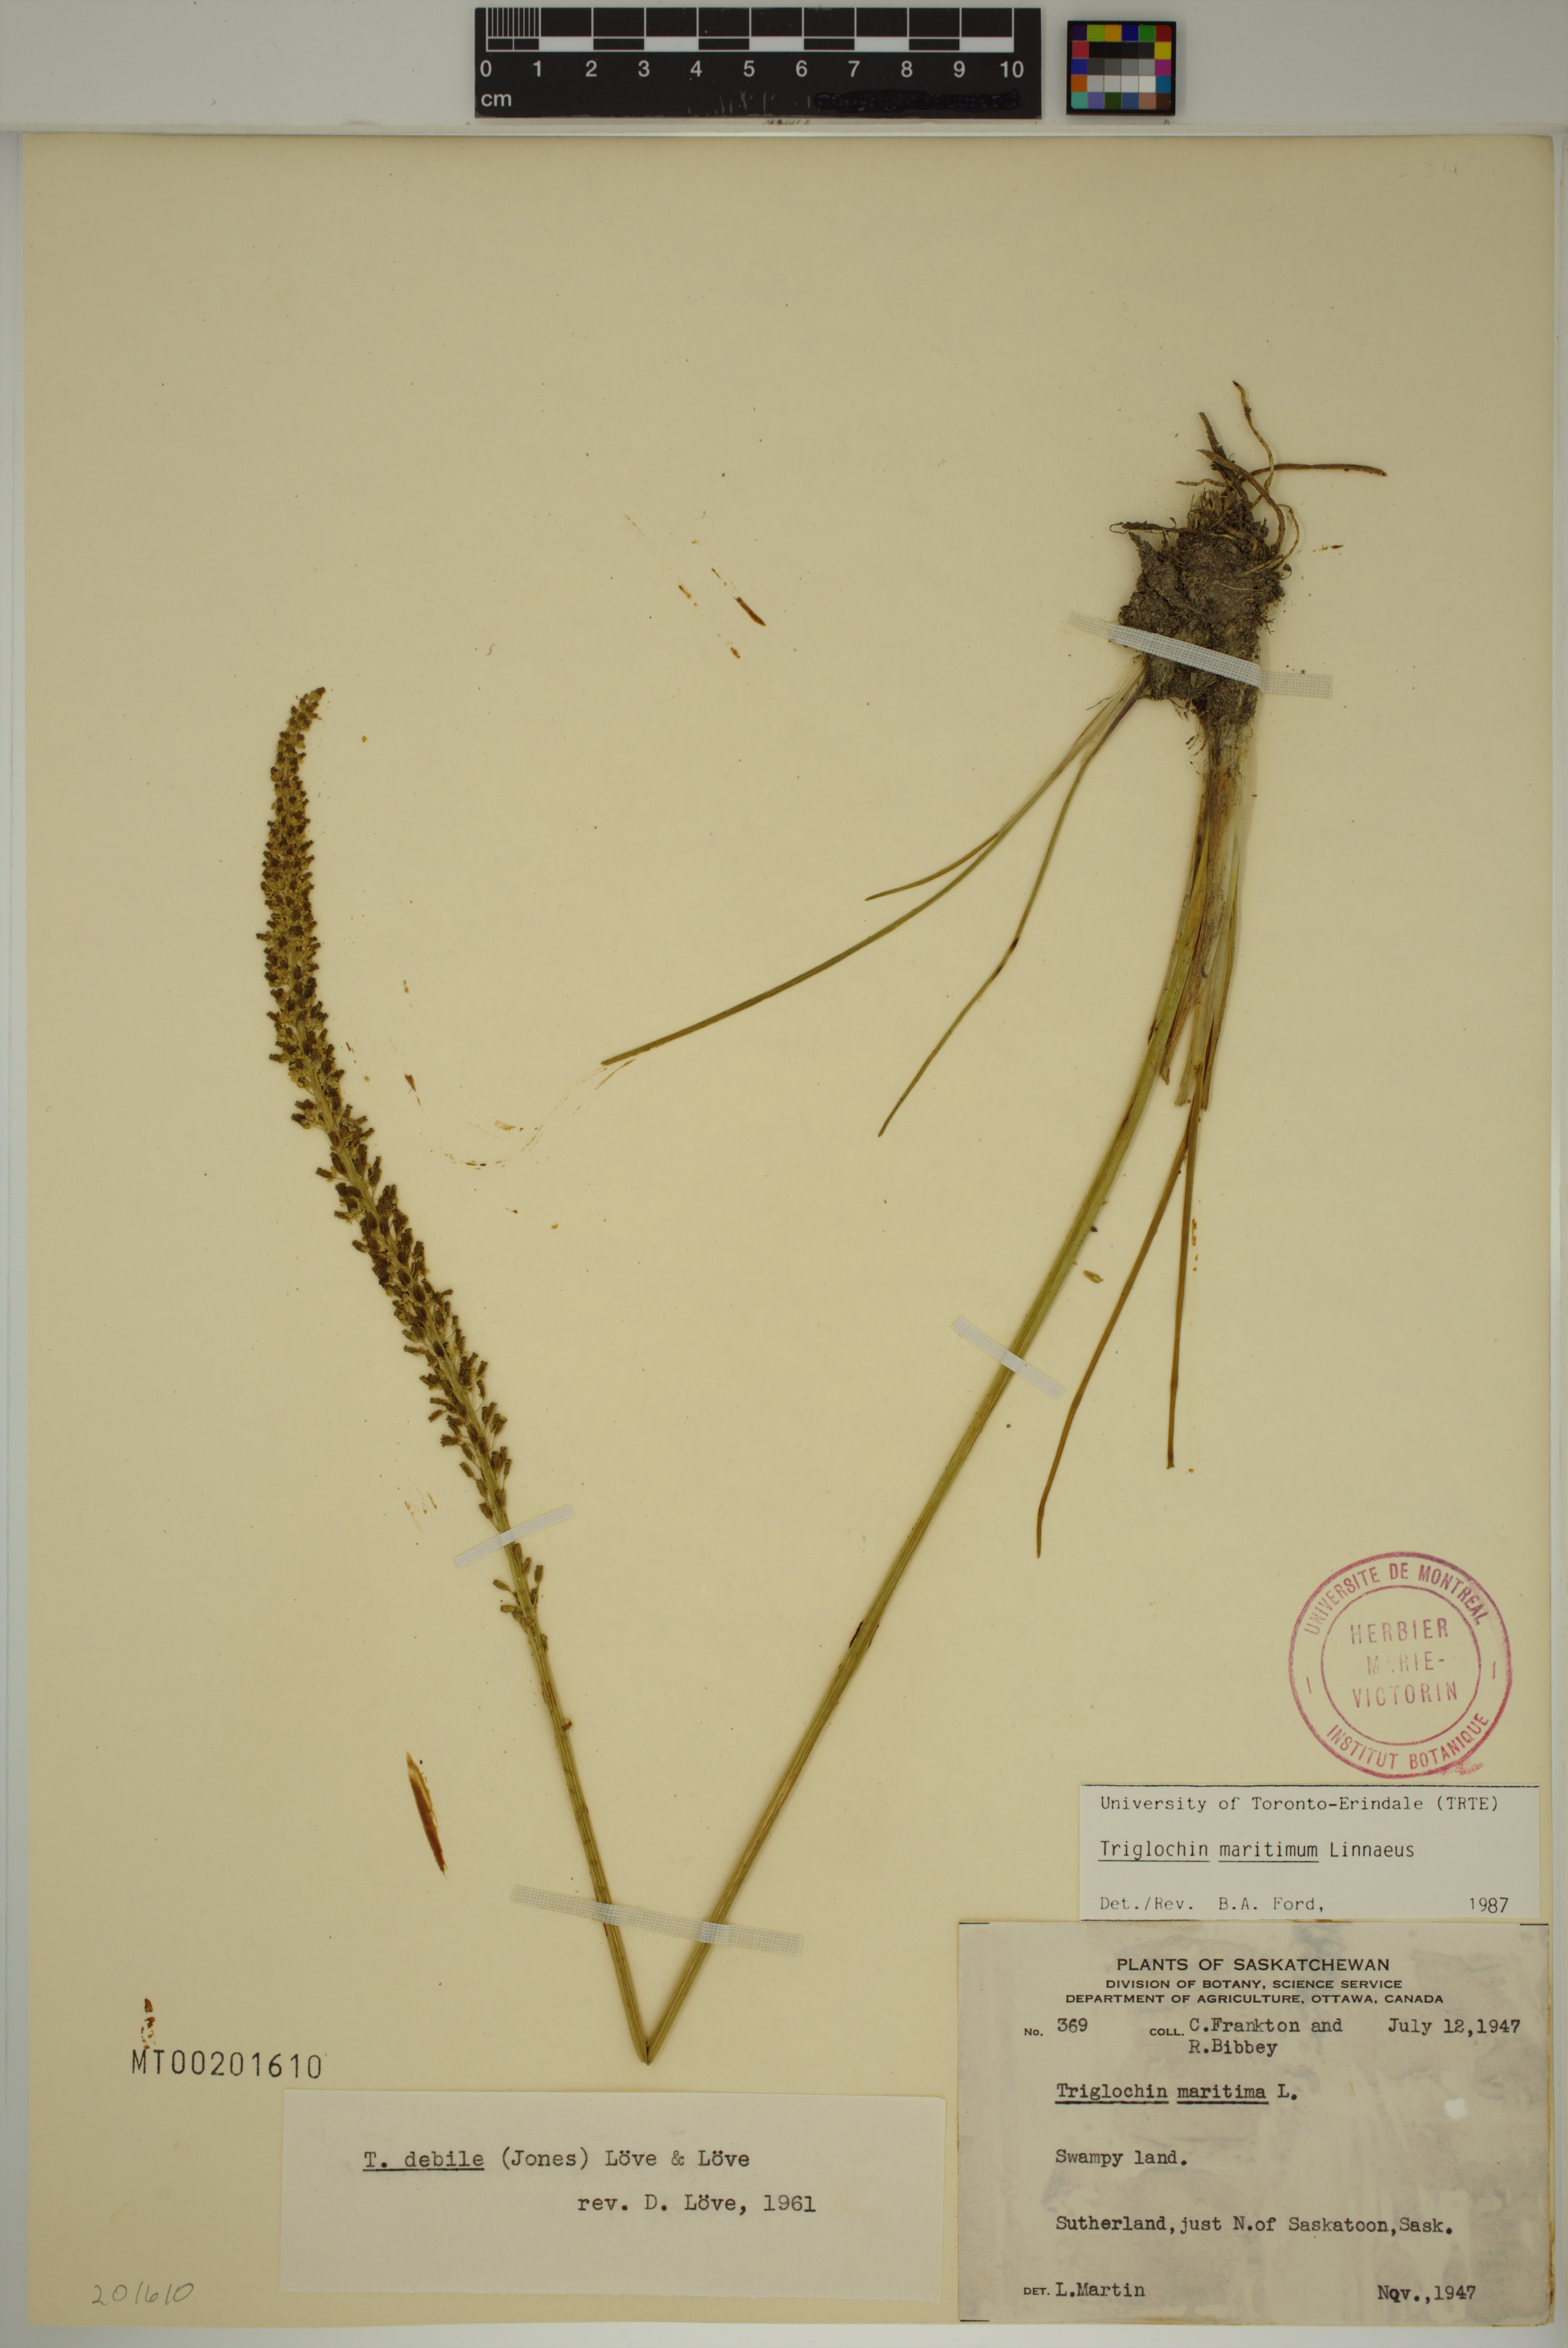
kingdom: Plantae
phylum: Tracheophyta
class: Liliopsida
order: Alismatales
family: Juncaginaceae
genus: Triglochin
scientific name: Triglochin maritima
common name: Sea arrowgrass
